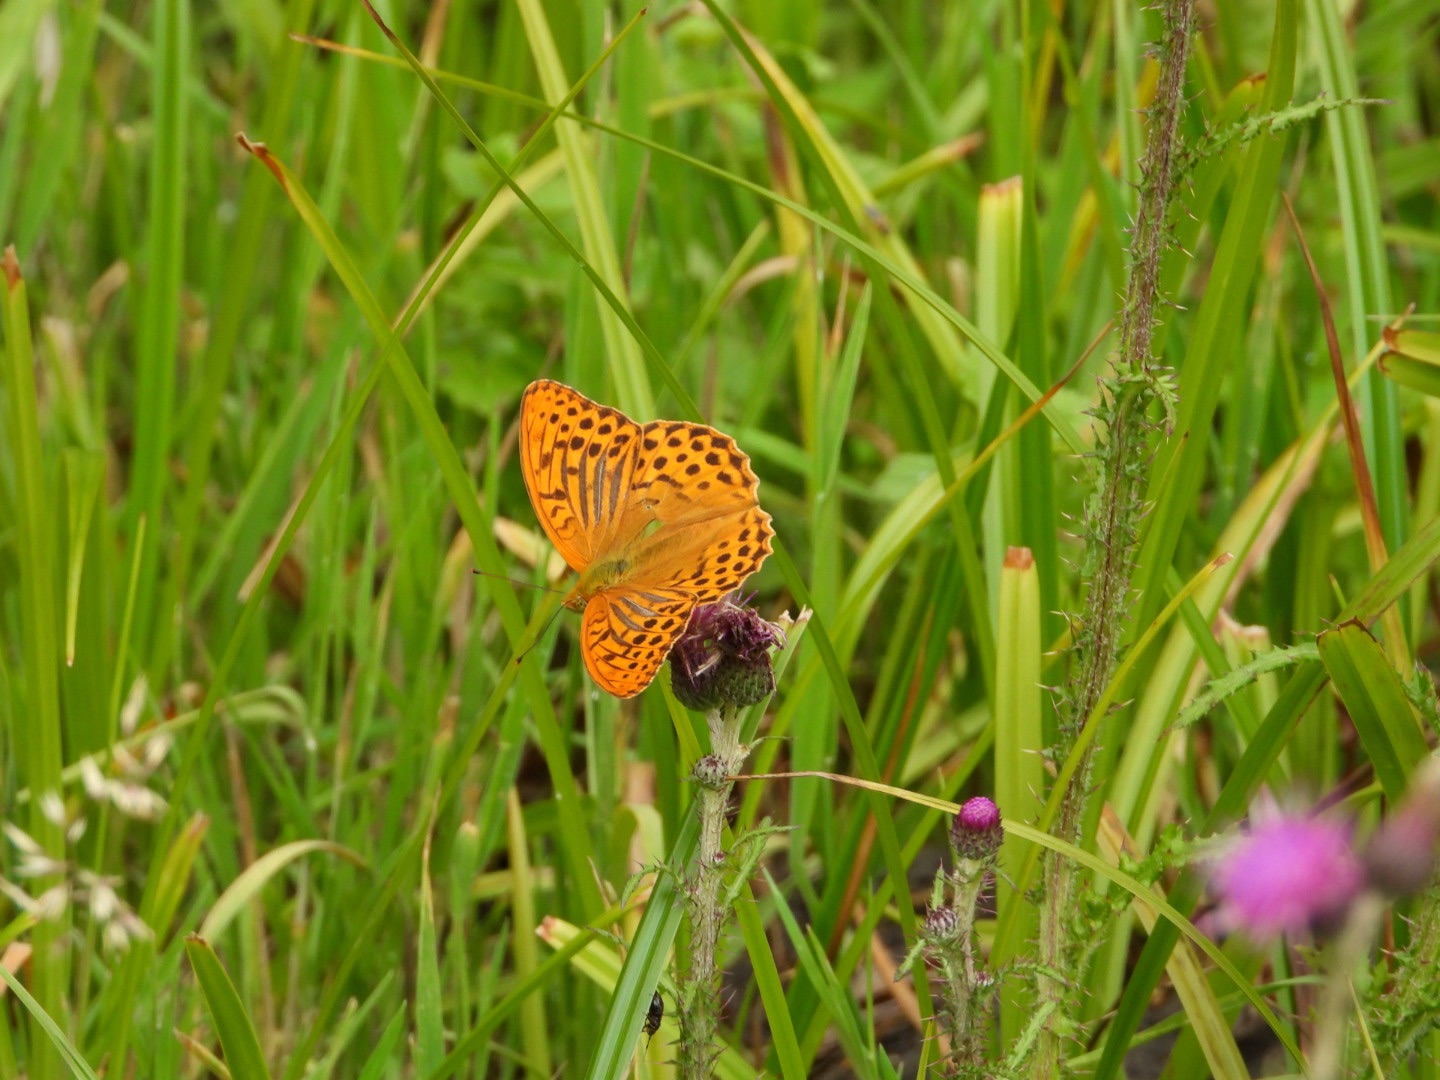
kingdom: Animalia
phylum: Arthropoda
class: Insecta
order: Lepidoptera
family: Nymphalidae
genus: Argynnis
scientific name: Argynnis paphia
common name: Kejserkåbe
